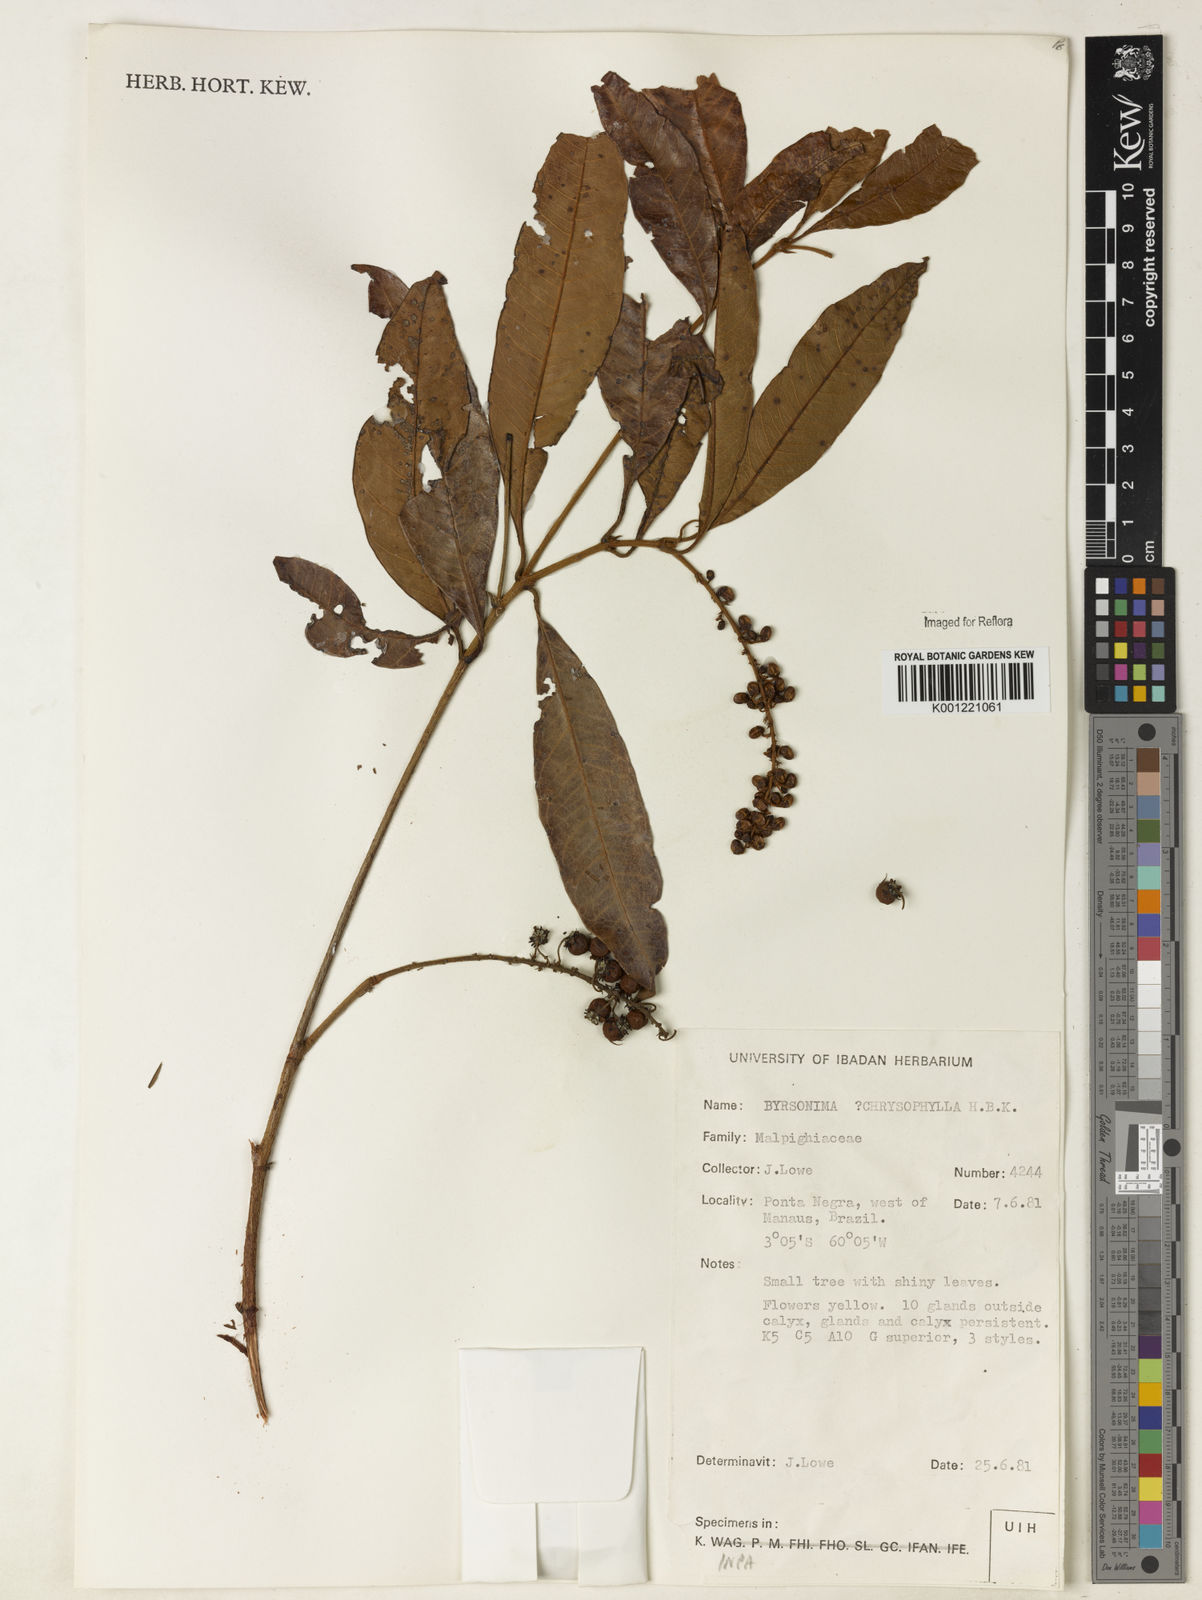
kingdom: Plantae
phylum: Tracheophyta
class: Magnoliopsida
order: Malpighiales
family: Malpighiaceae
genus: Byrsonima
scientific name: Byrsonima chrysophylla
